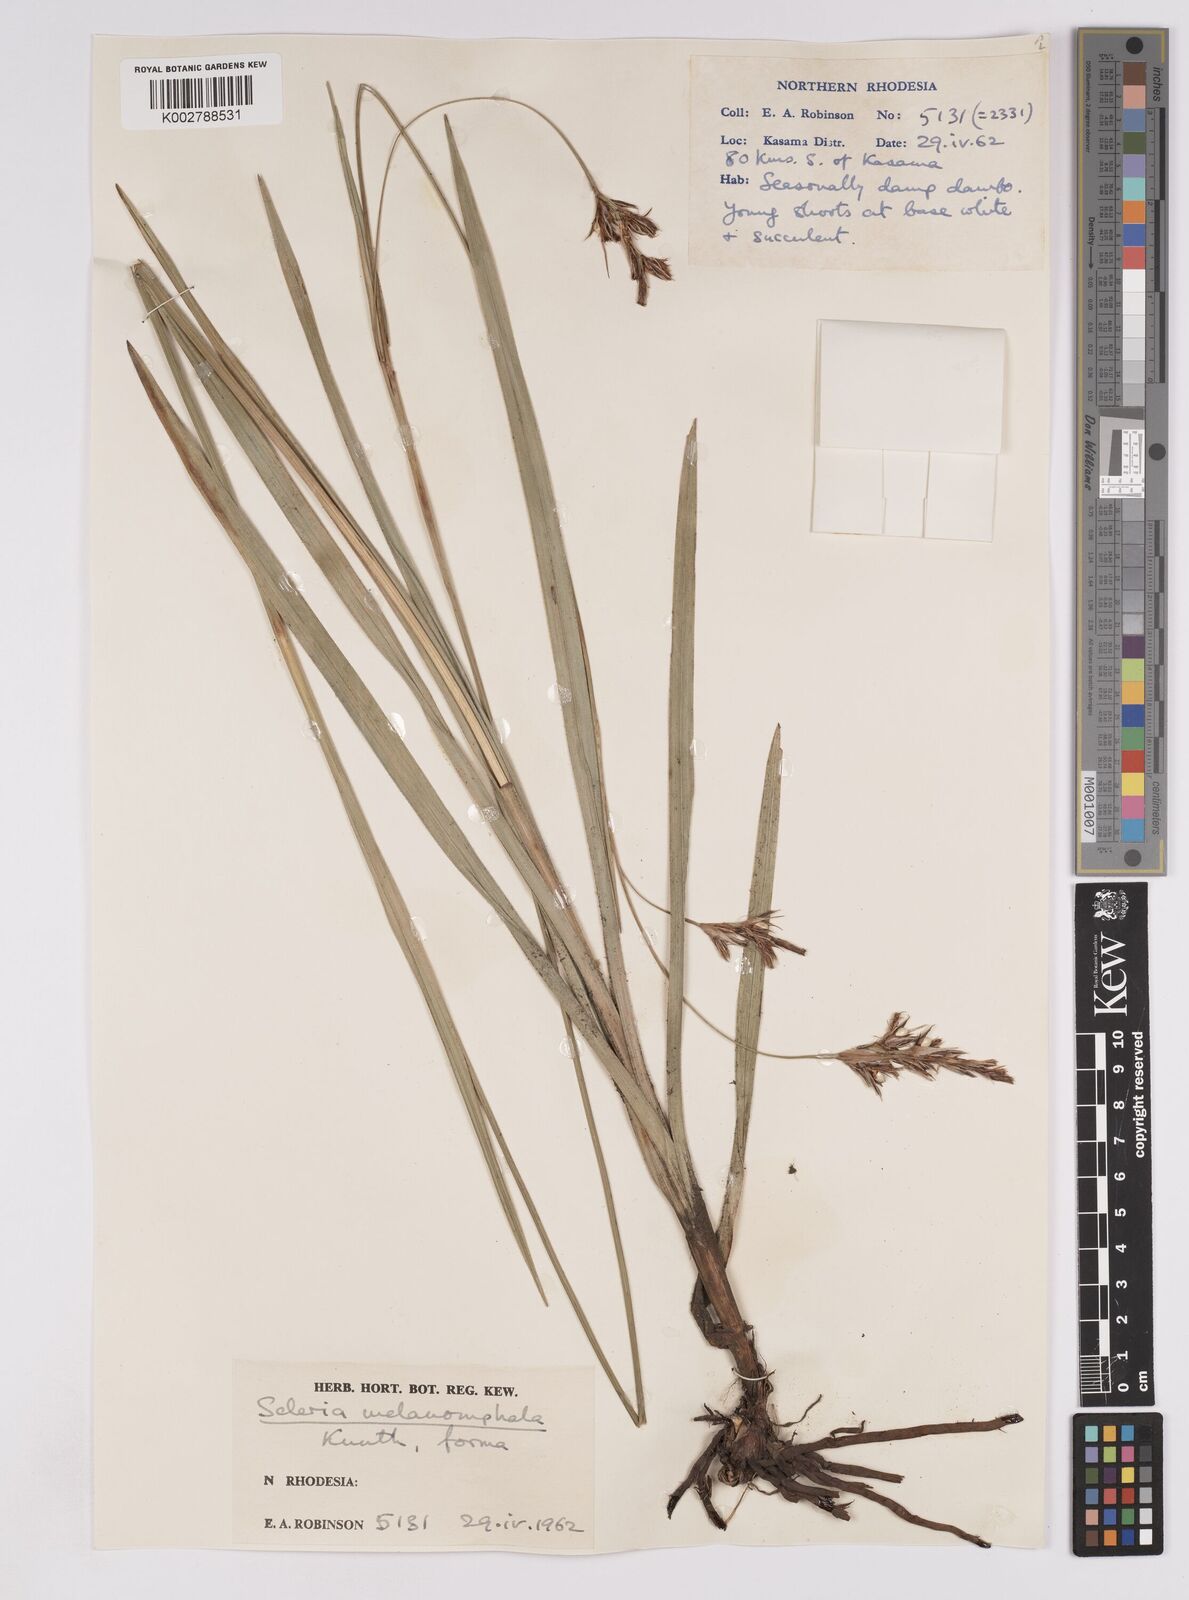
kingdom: Plantae
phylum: Tracheophyta
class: Liliopsida
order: Poales
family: Cyperaceae
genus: Scleria
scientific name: Scleria melanomphala
